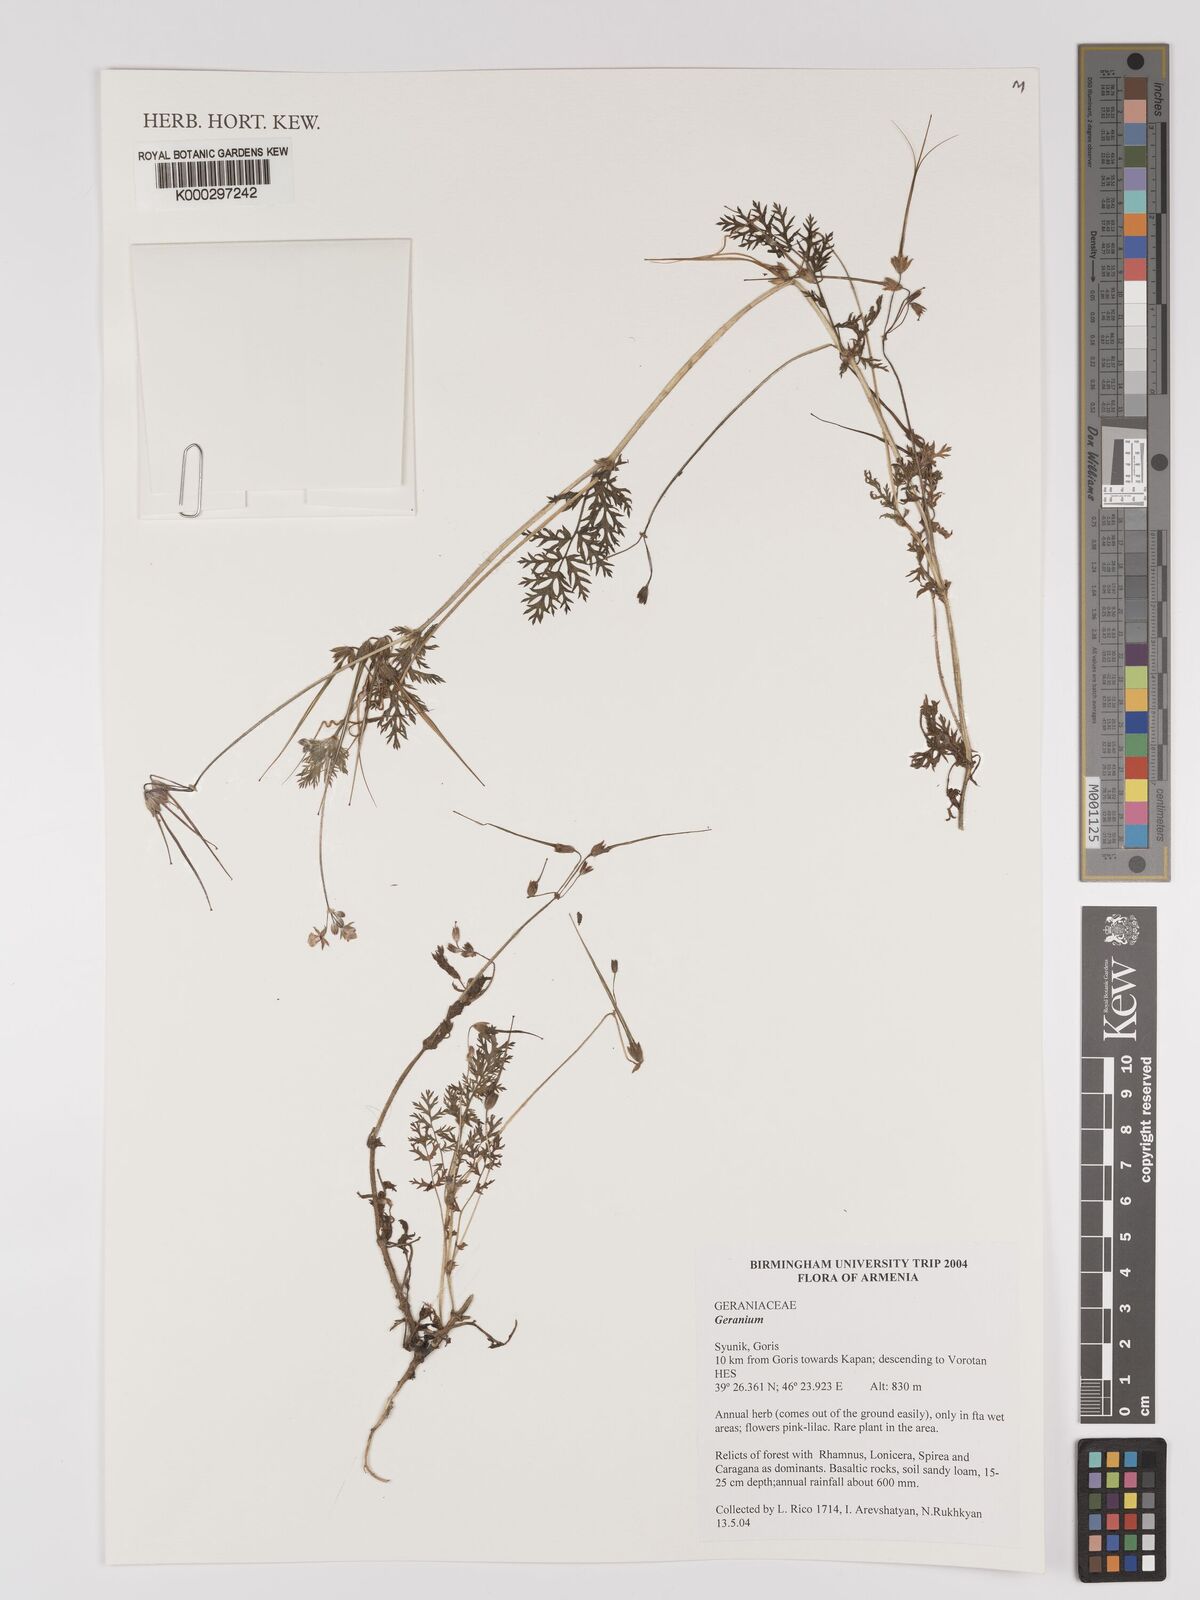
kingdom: Plantae
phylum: Tracheophyta
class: Magnoliopsida
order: Geraniales
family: Geraniaceae
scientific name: Geraniaceae
